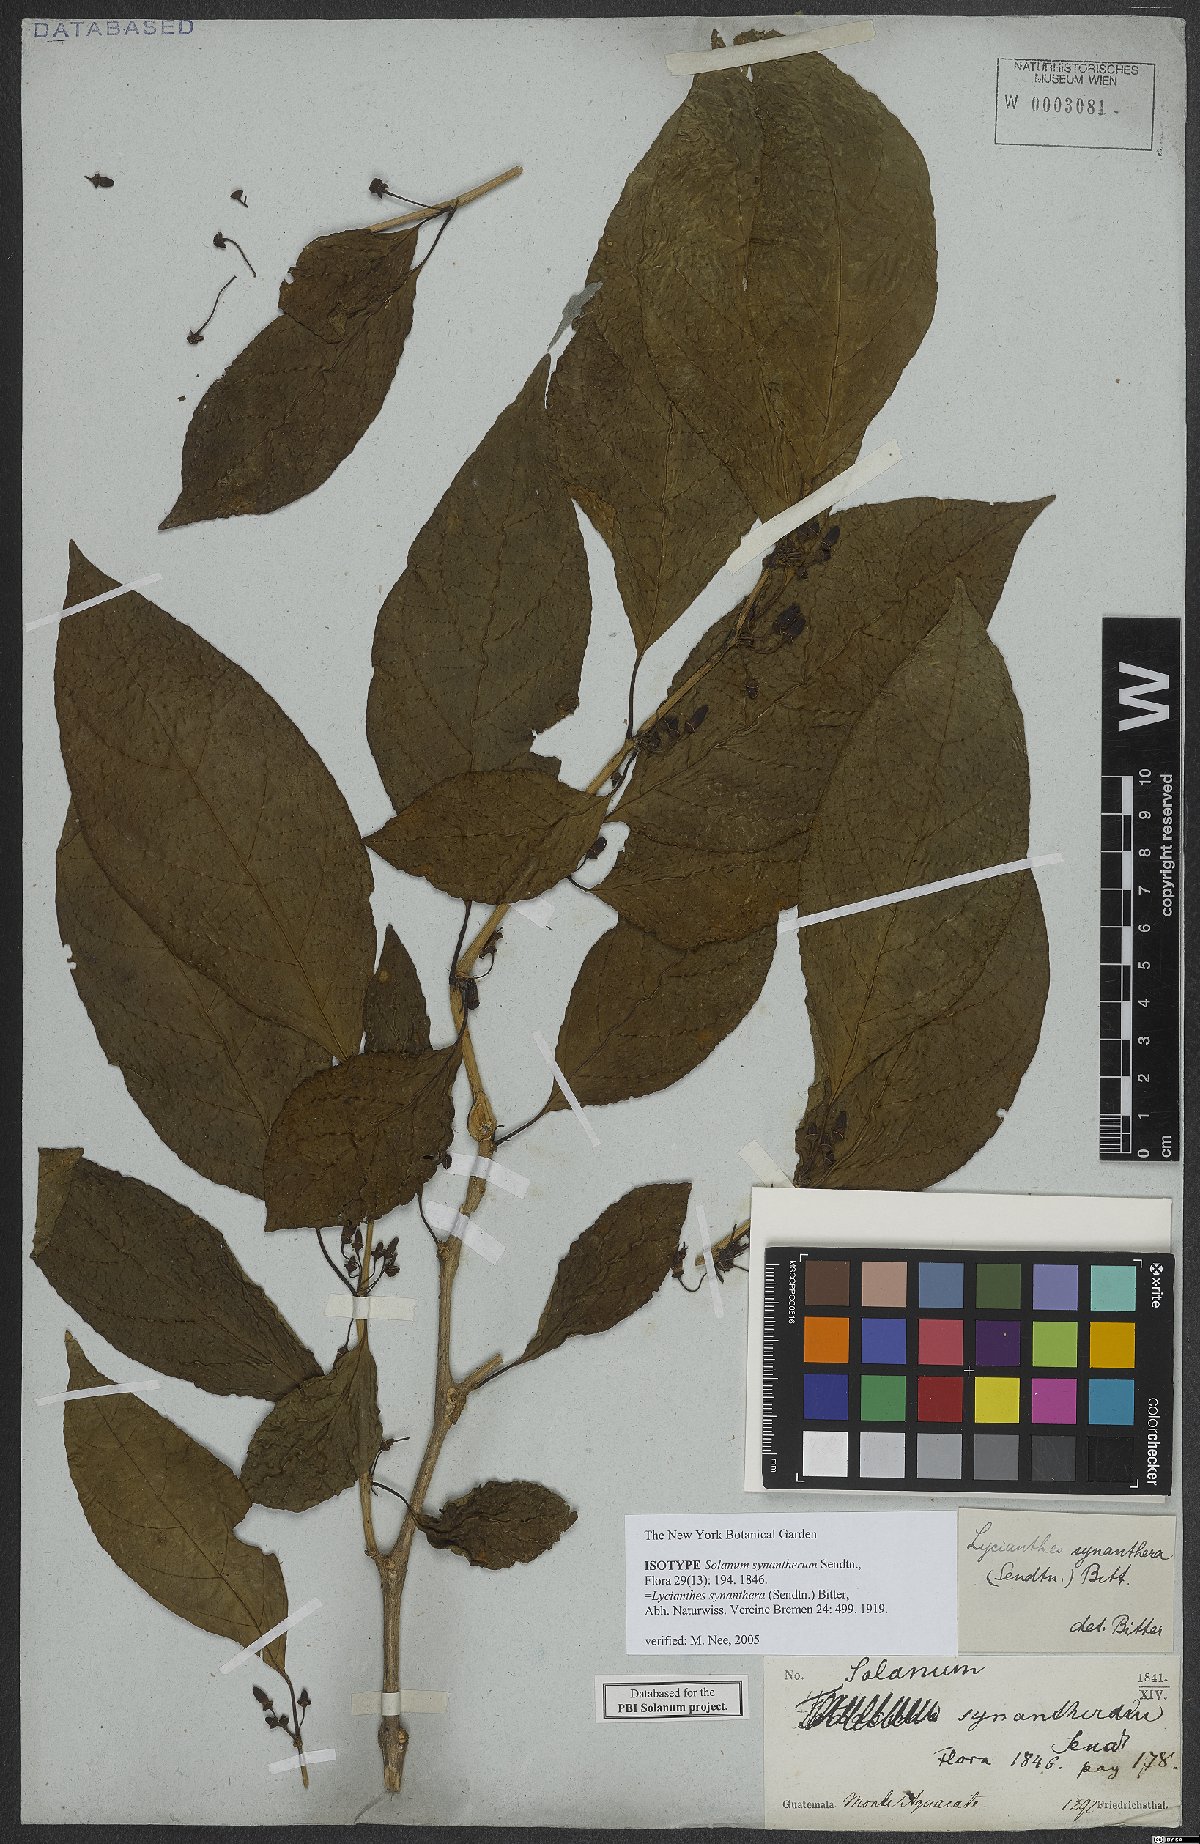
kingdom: Plantae
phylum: Tracheophyta
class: Magnoliopsida
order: Solanales
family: Solanaceae
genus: Lycianthes
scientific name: Lycianthes synanthera
